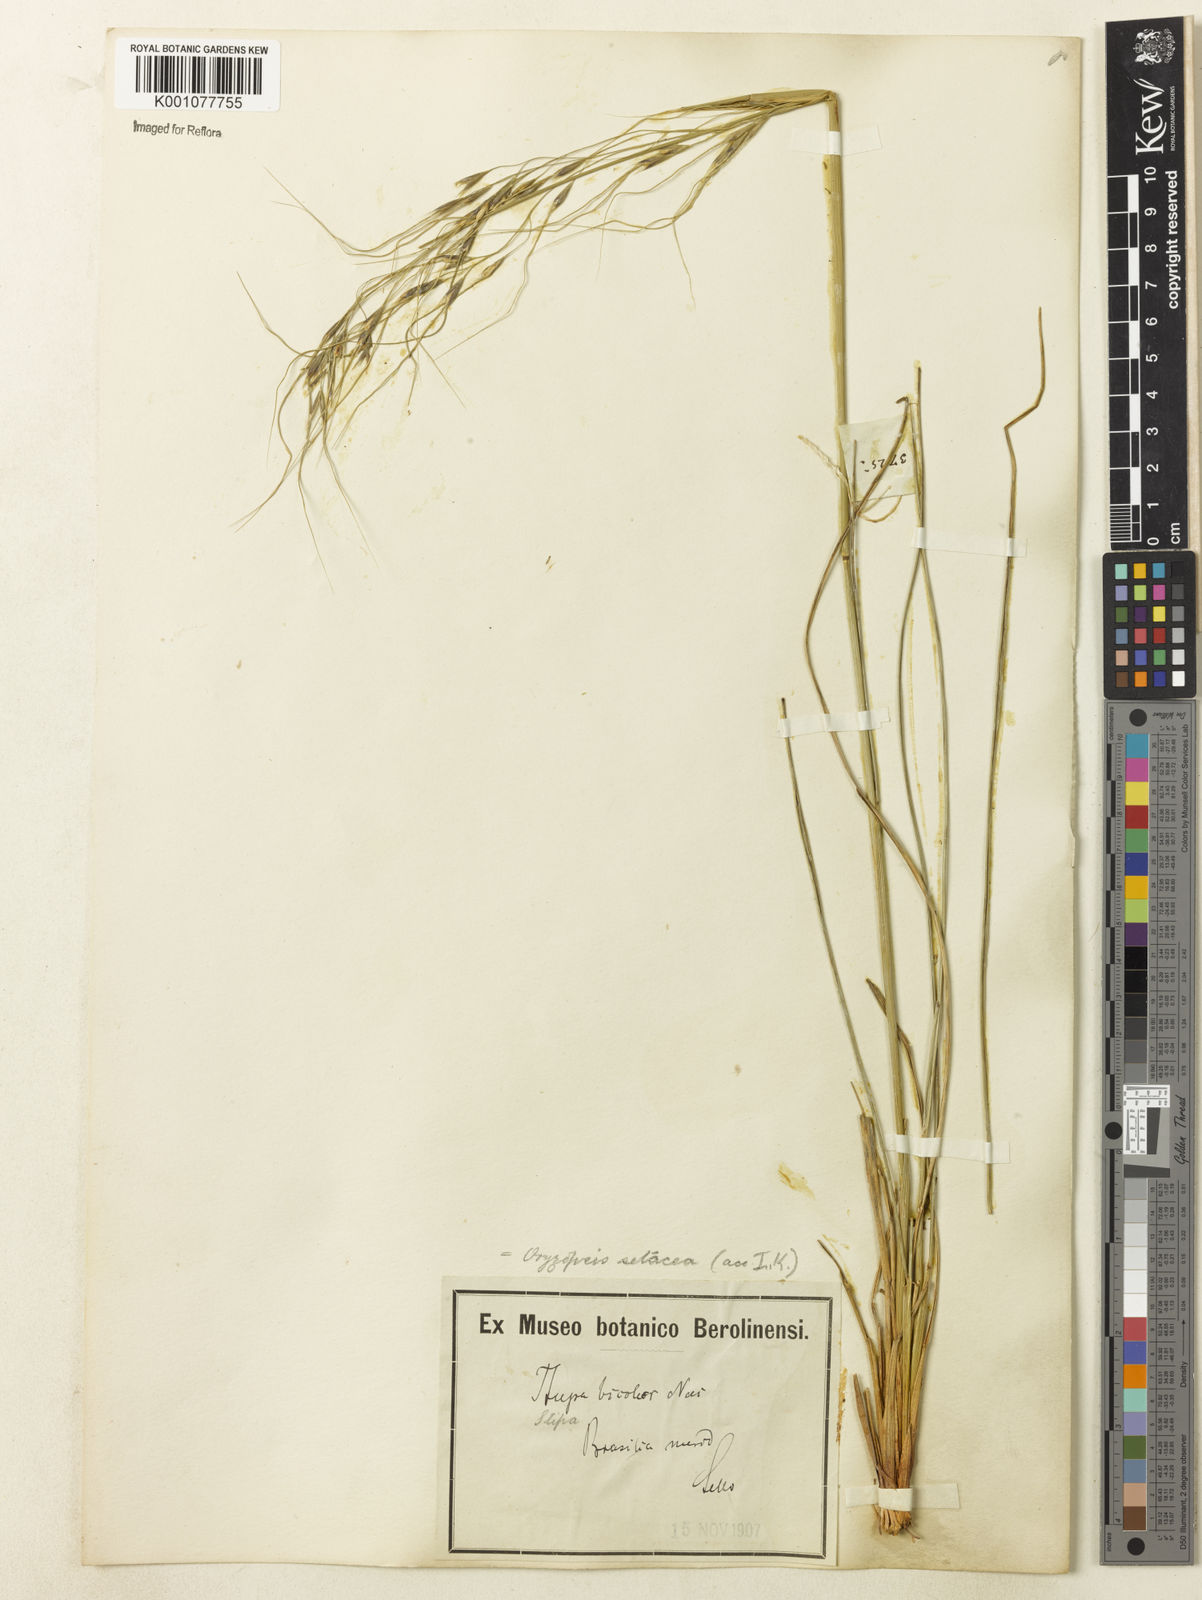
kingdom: Plantae
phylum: Tracheophyta
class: Liliopsida
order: Poales
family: Poaceae
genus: Piptochaetium
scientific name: Piptochaetium ruprechtianum
